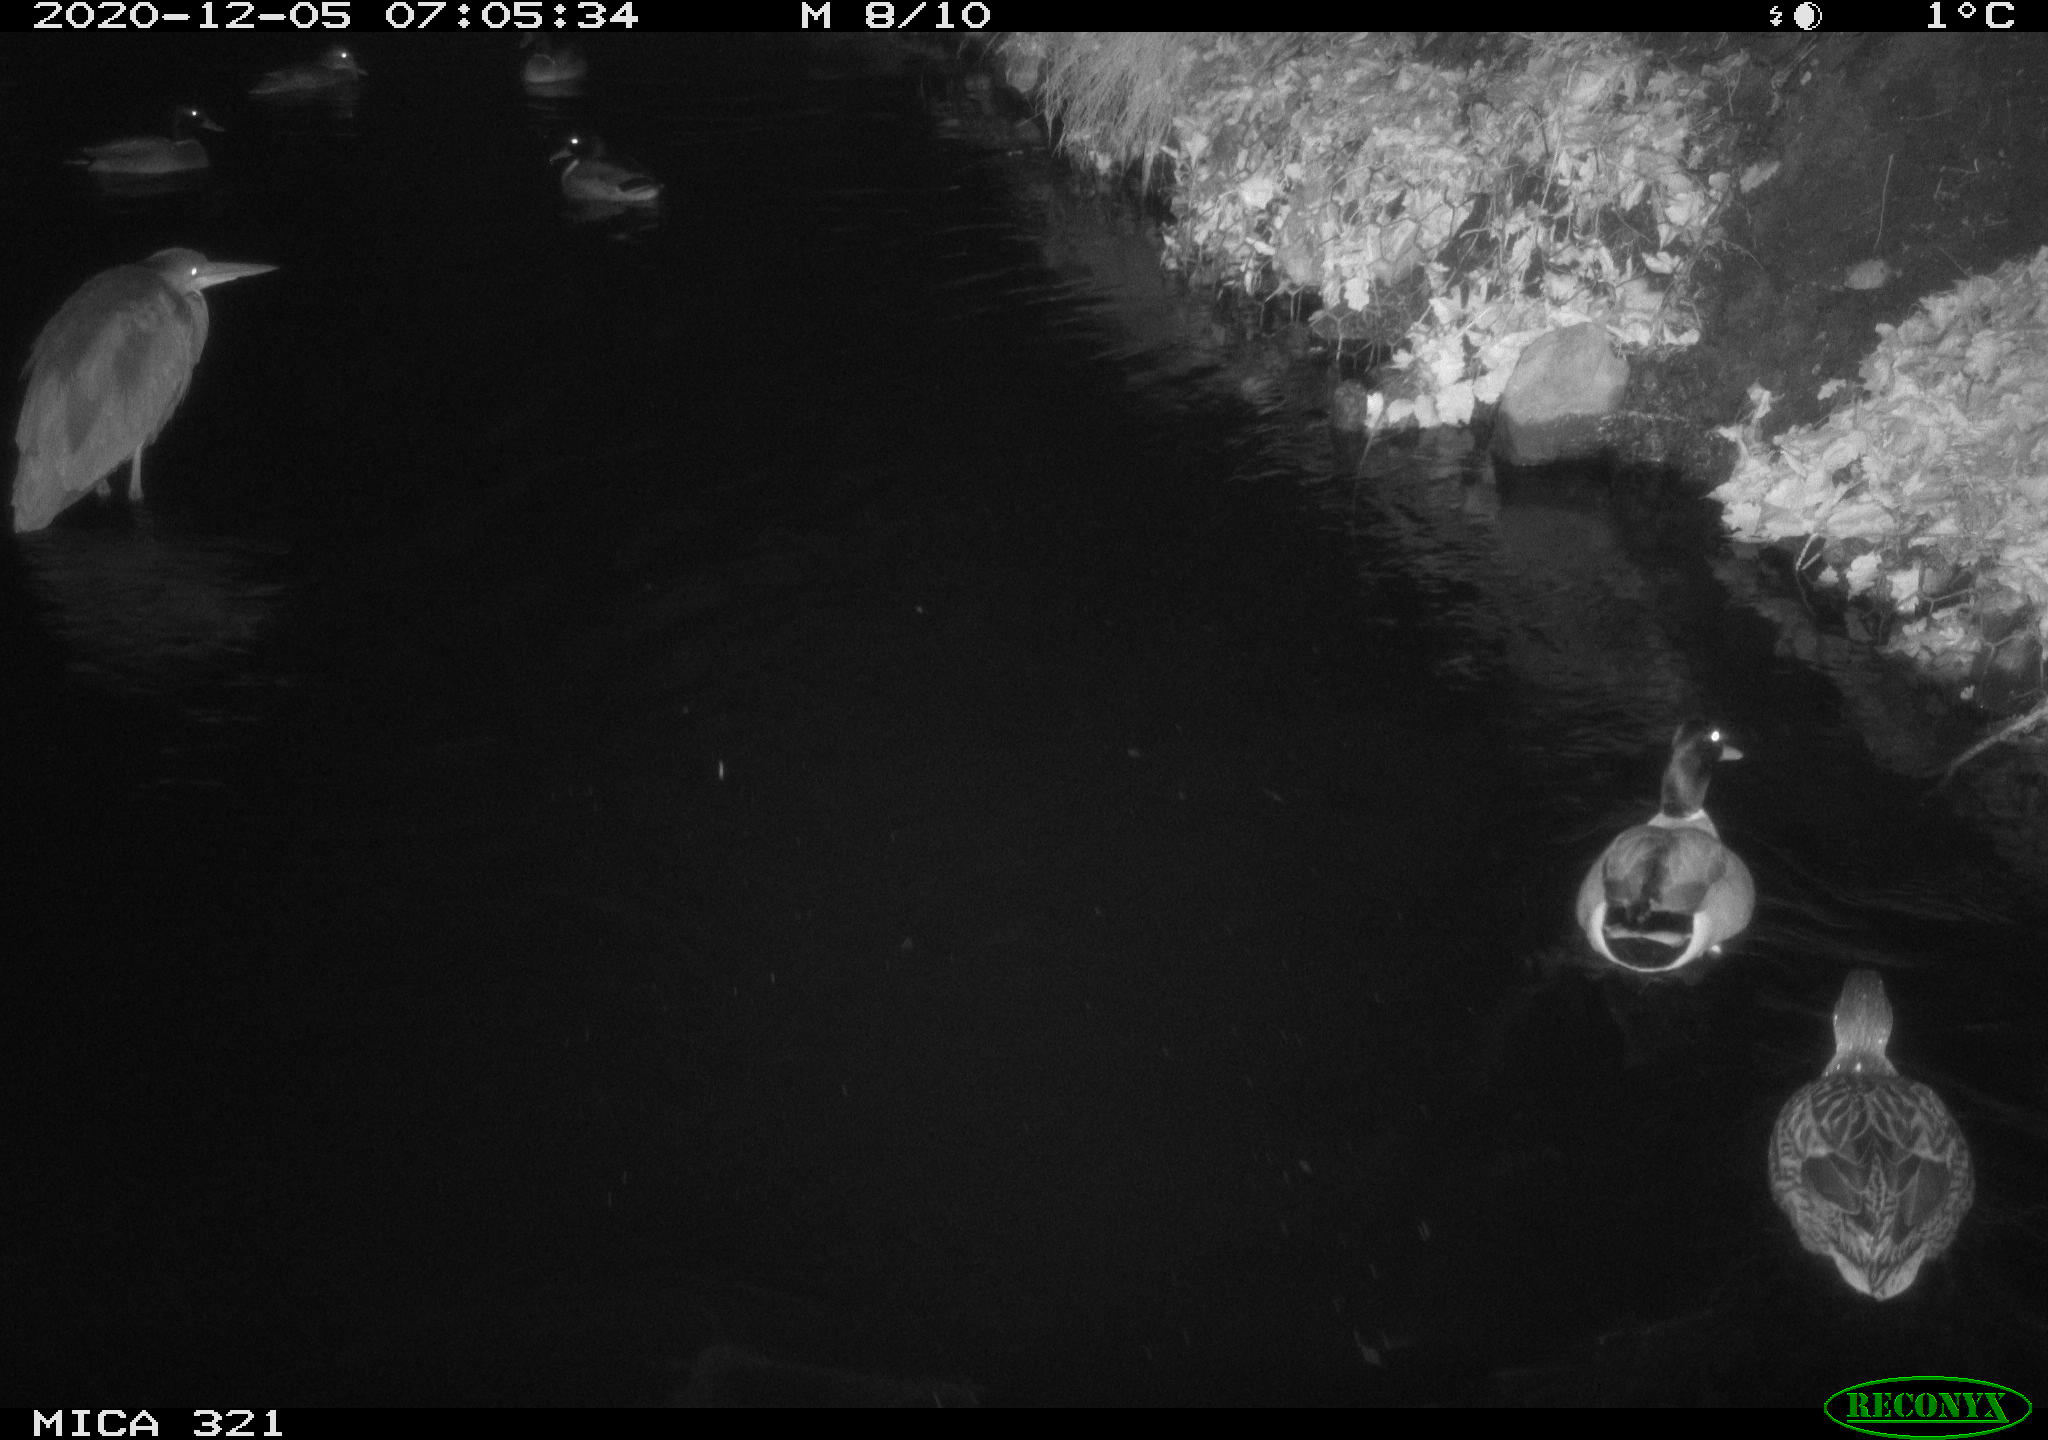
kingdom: Animalia
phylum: Chordata
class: Aves
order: Anseriformes
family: Anatidae
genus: Anas
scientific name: Anas platyrhynchos
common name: Mallard
